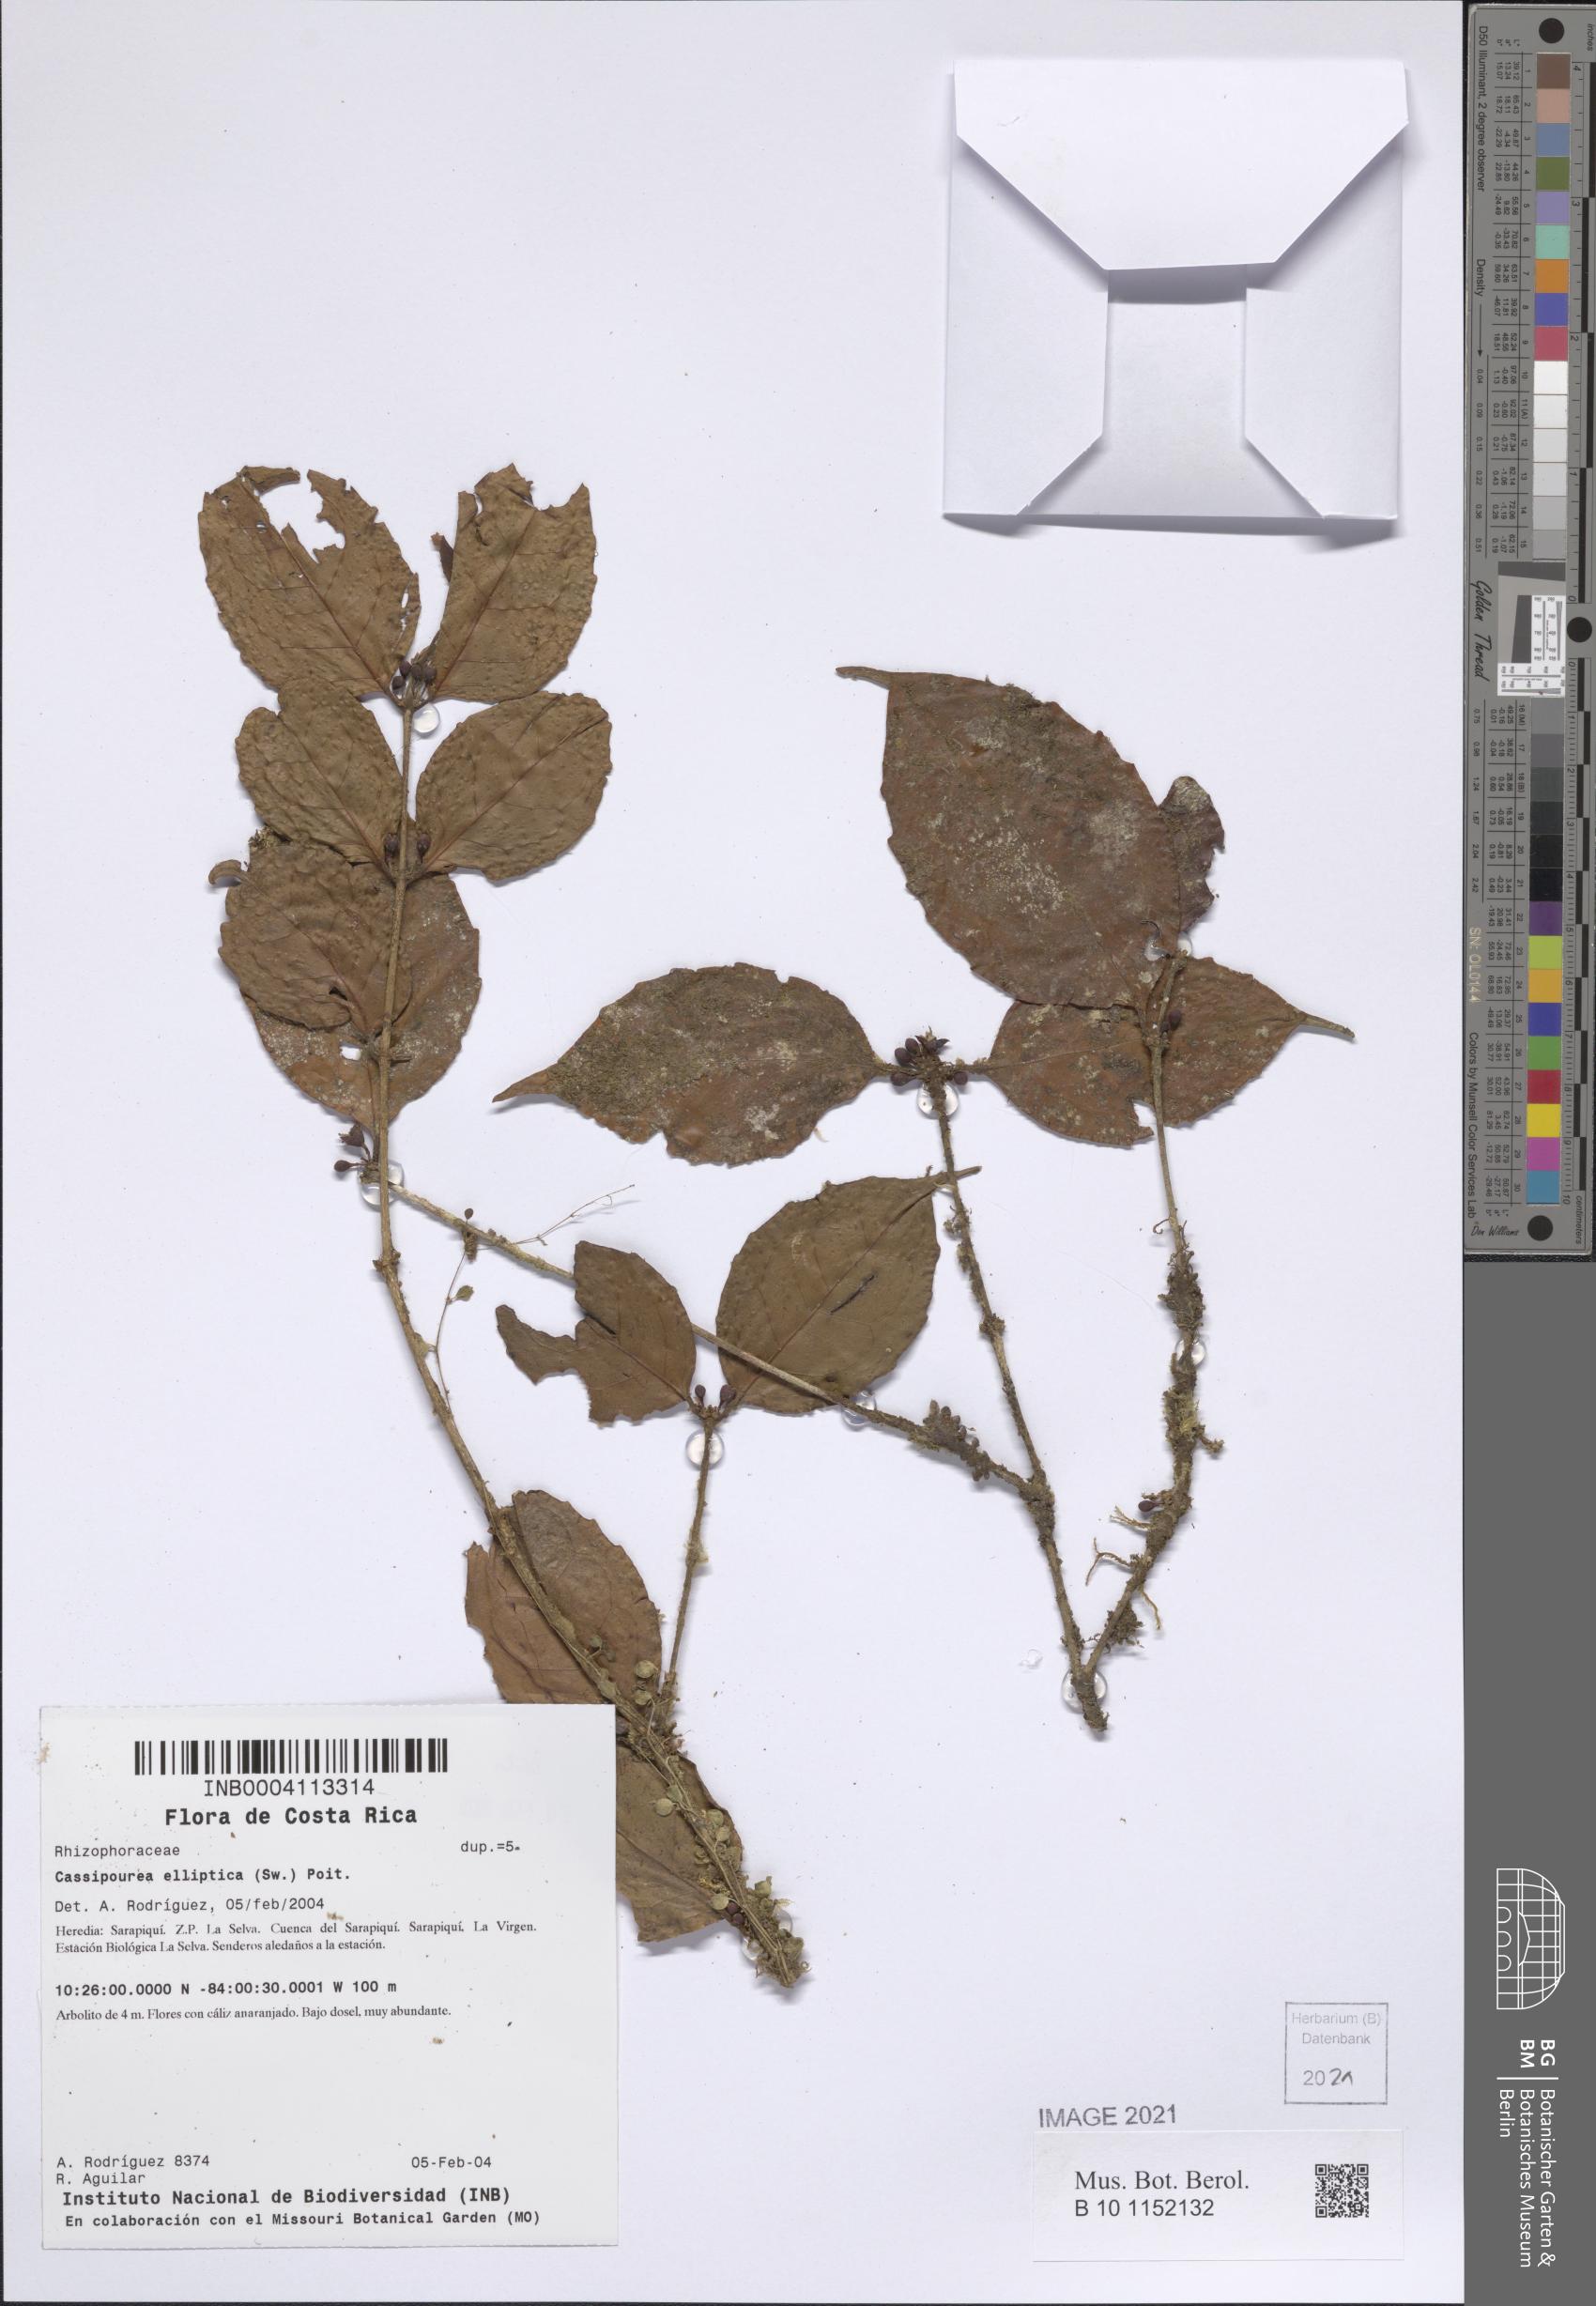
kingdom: Plantae
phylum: Tracheophyta
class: Magnoliopsida
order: Malpighiales
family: Rhizophoraceae
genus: Cassipourea
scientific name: Cassipourea elliptica
